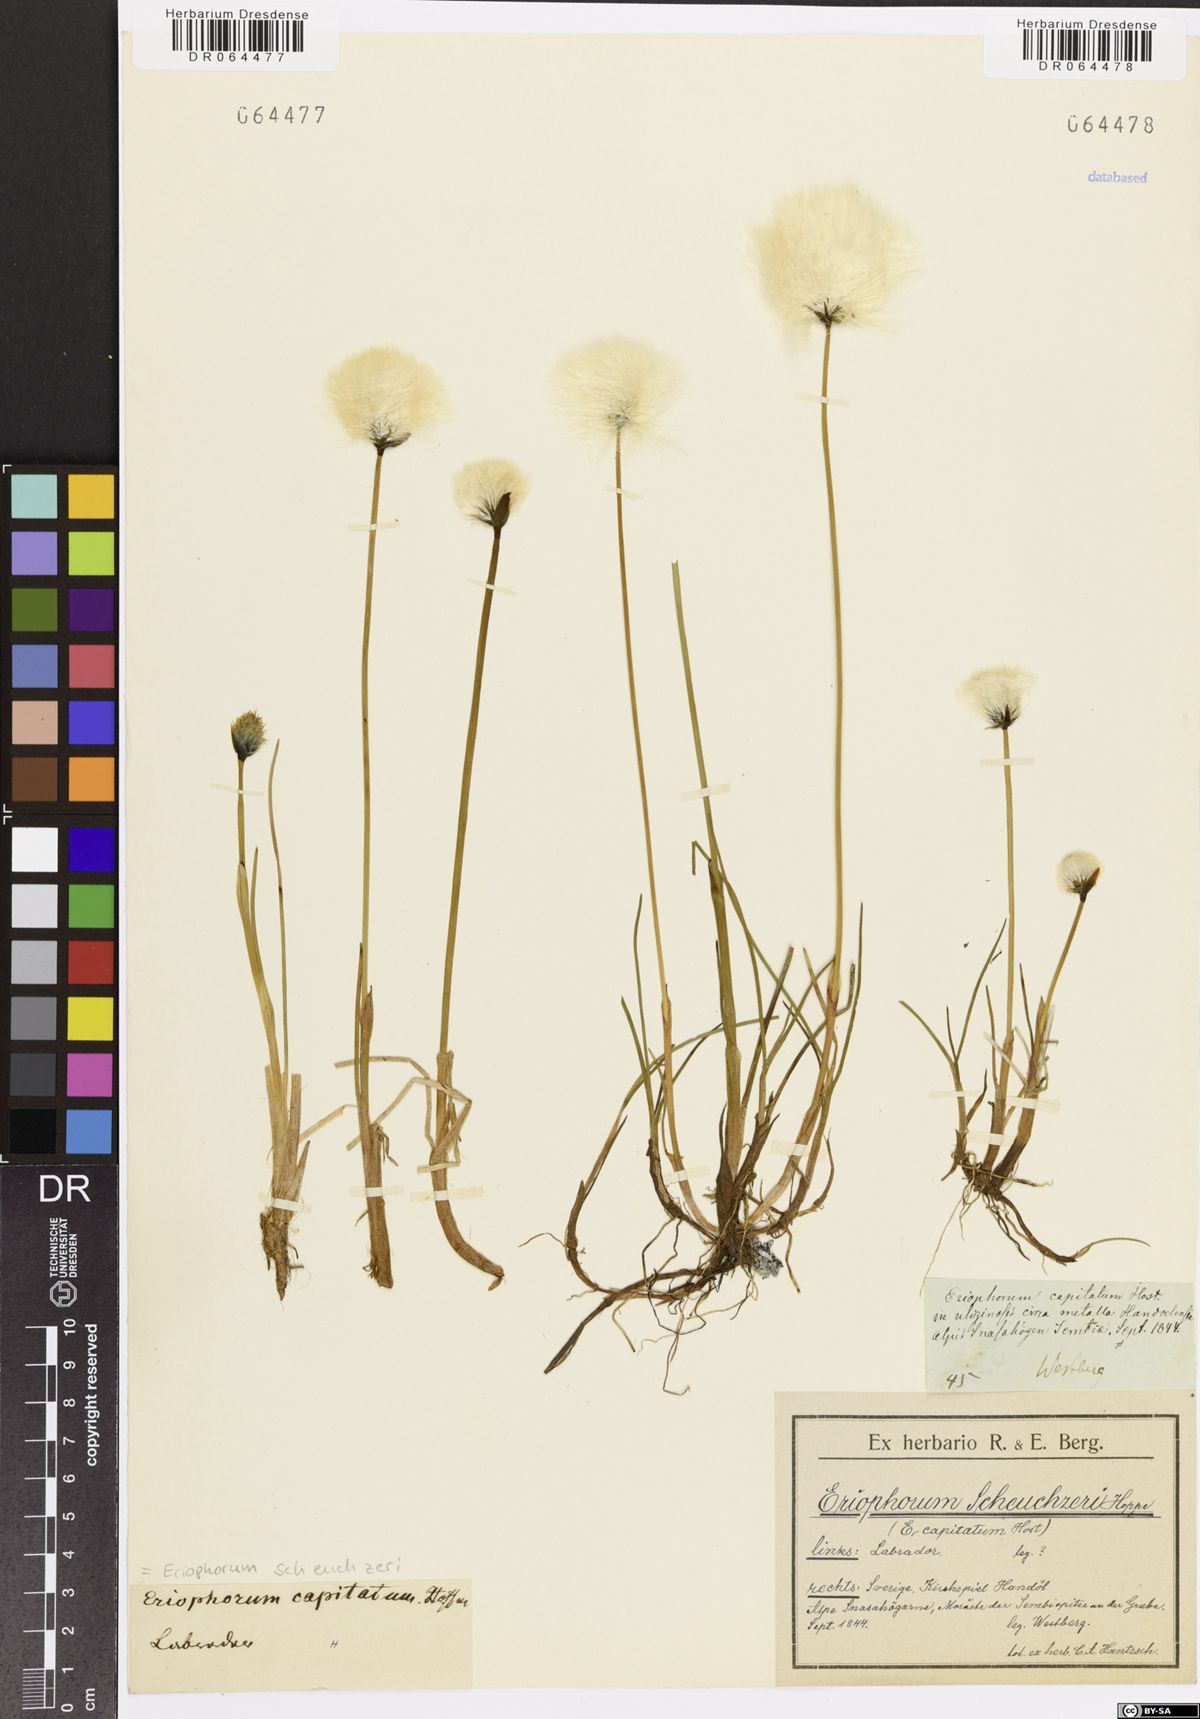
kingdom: Plantae
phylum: Tracheophyta
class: Liliopsida
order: Poales
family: Cyperaceae
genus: Eriophorum
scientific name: Eriophorum scheuchzeri
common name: Scheuchzer's cottongrass
